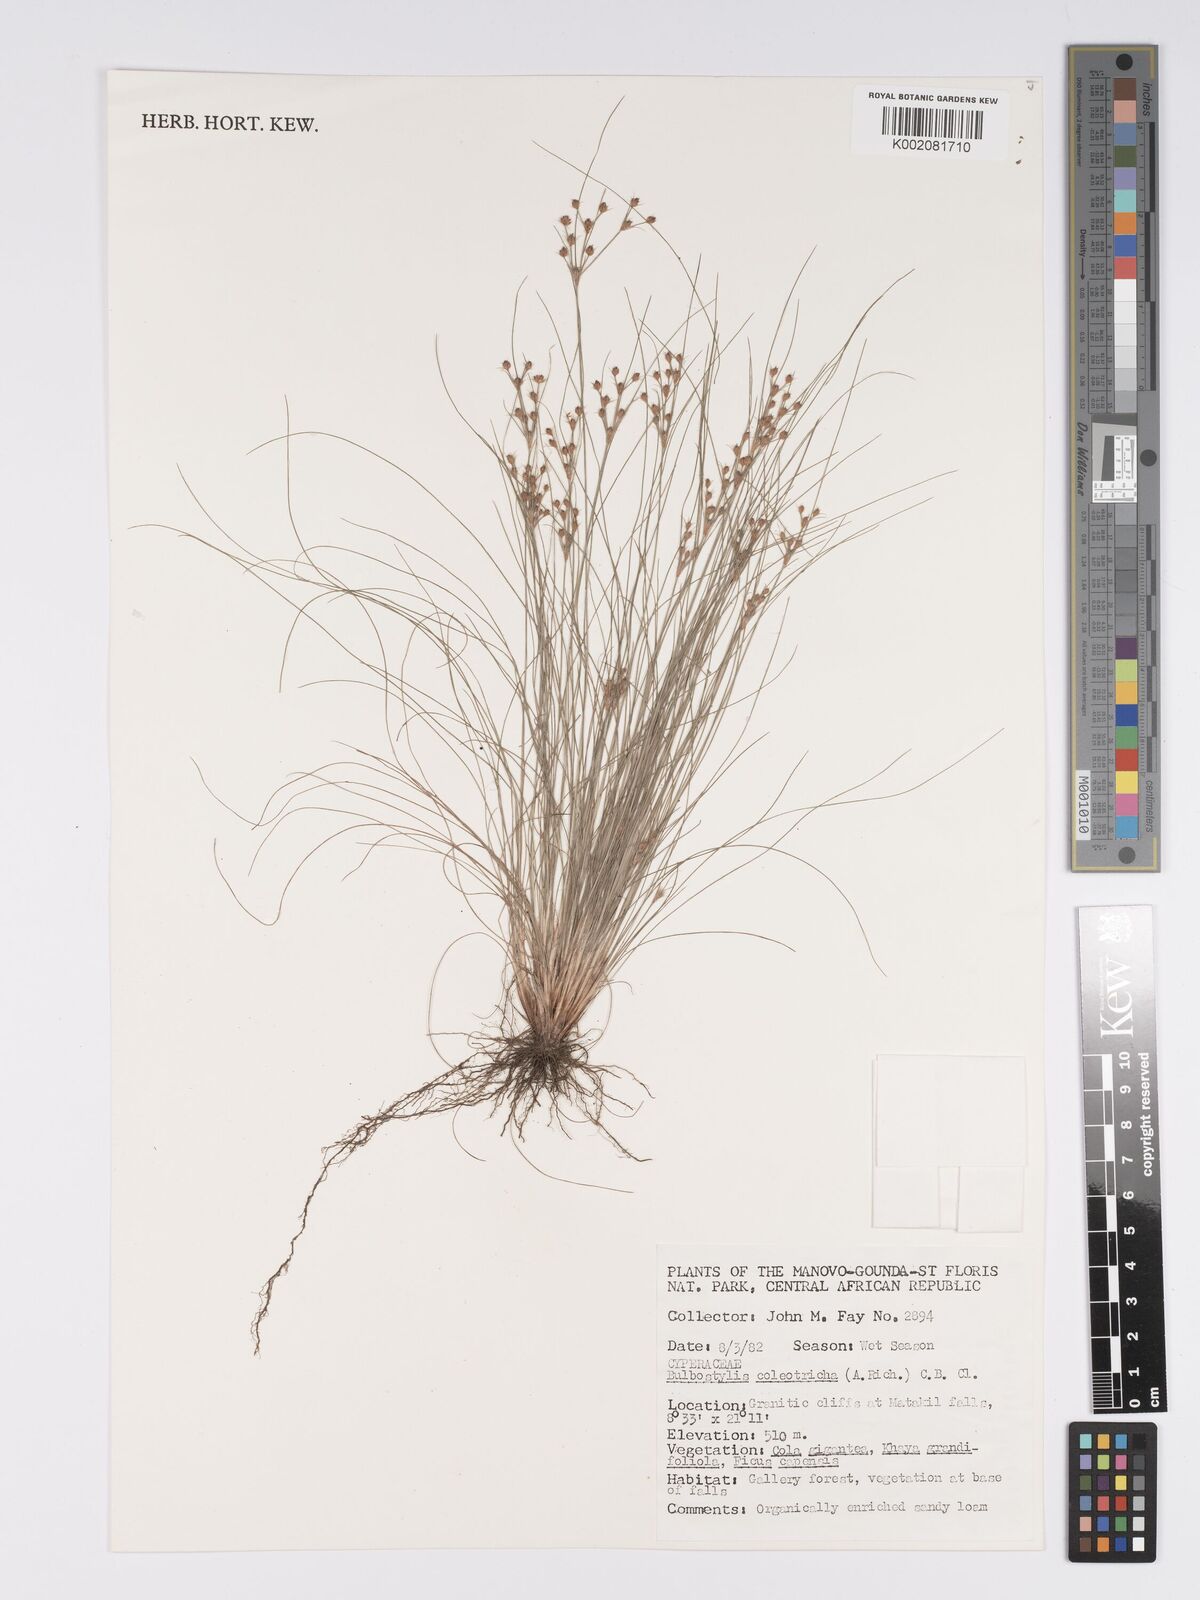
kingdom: Plantae
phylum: Tracheophyta
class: Liliopsida
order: Poales
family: Cyperaceae
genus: Bulbostylis
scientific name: Bulbostylis coleotricha
